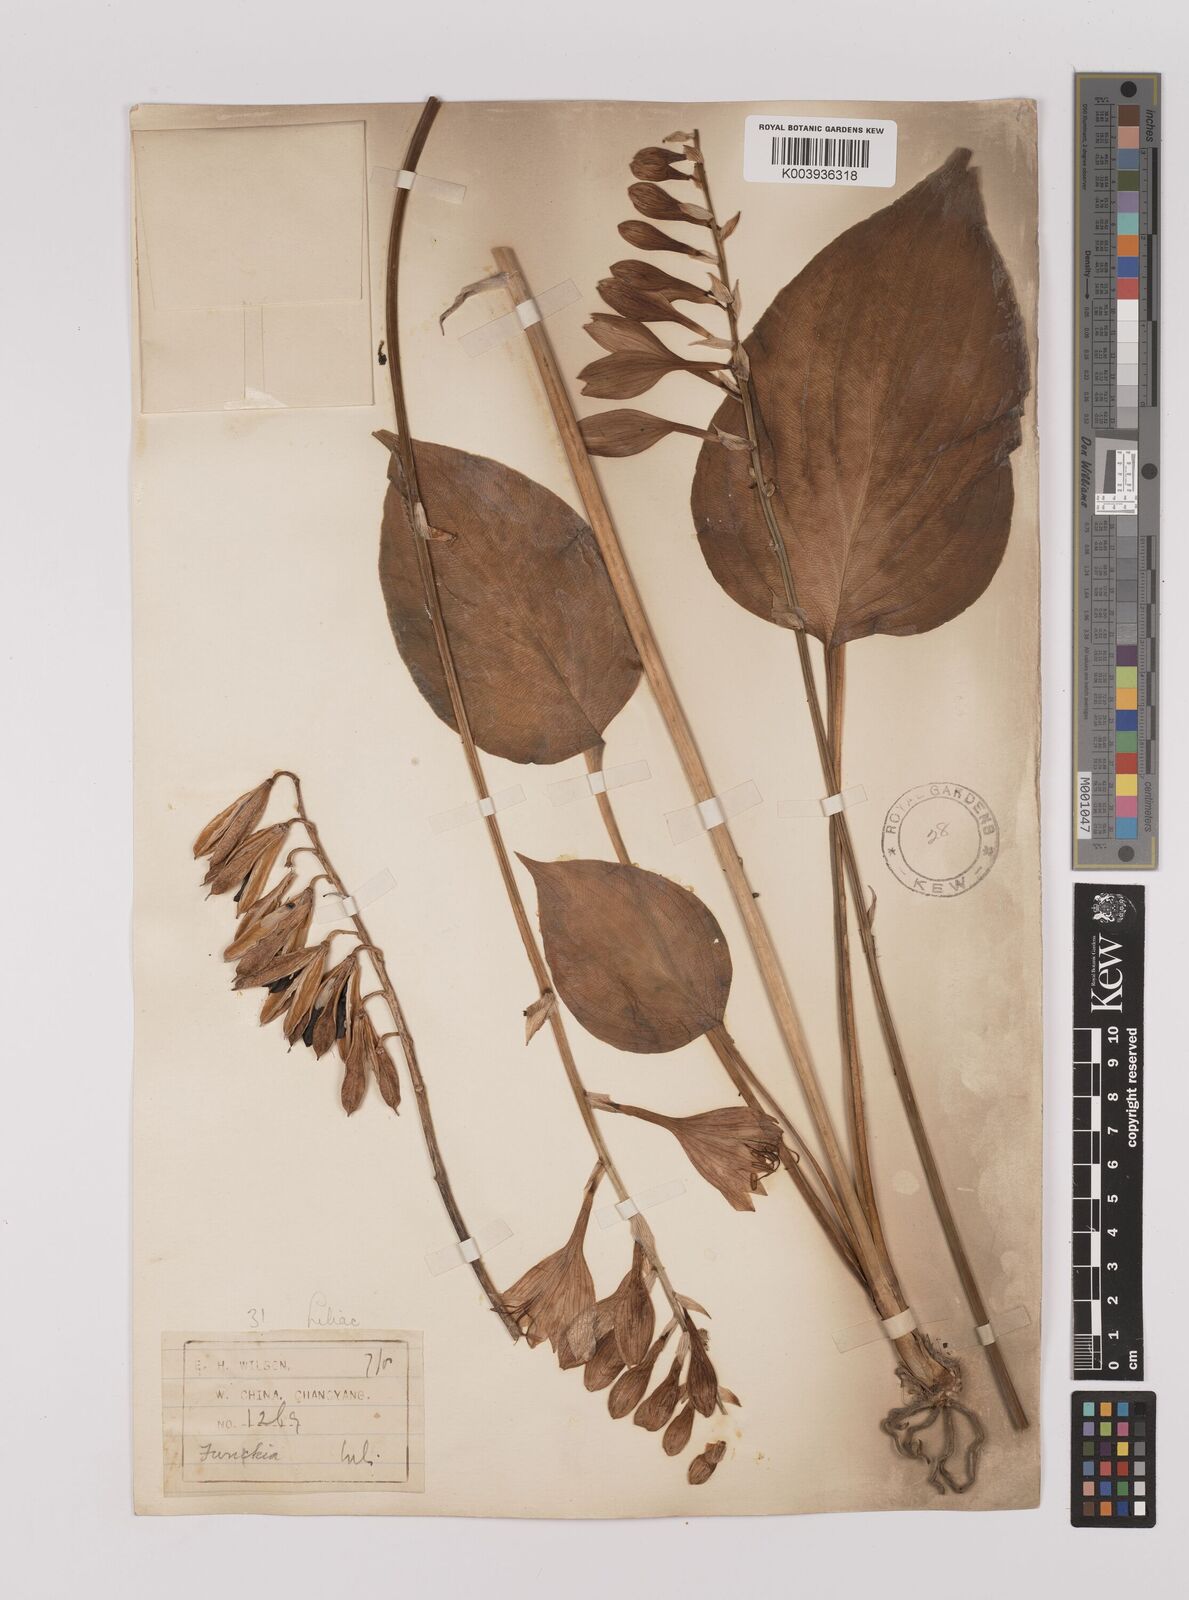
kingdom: Plantae
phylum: Tracheophyta
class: Liliopsida
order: Asparagales
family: Asparagaceae
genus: Hosta
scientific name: Hosta ventricosa
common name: Blue plantain-lily
